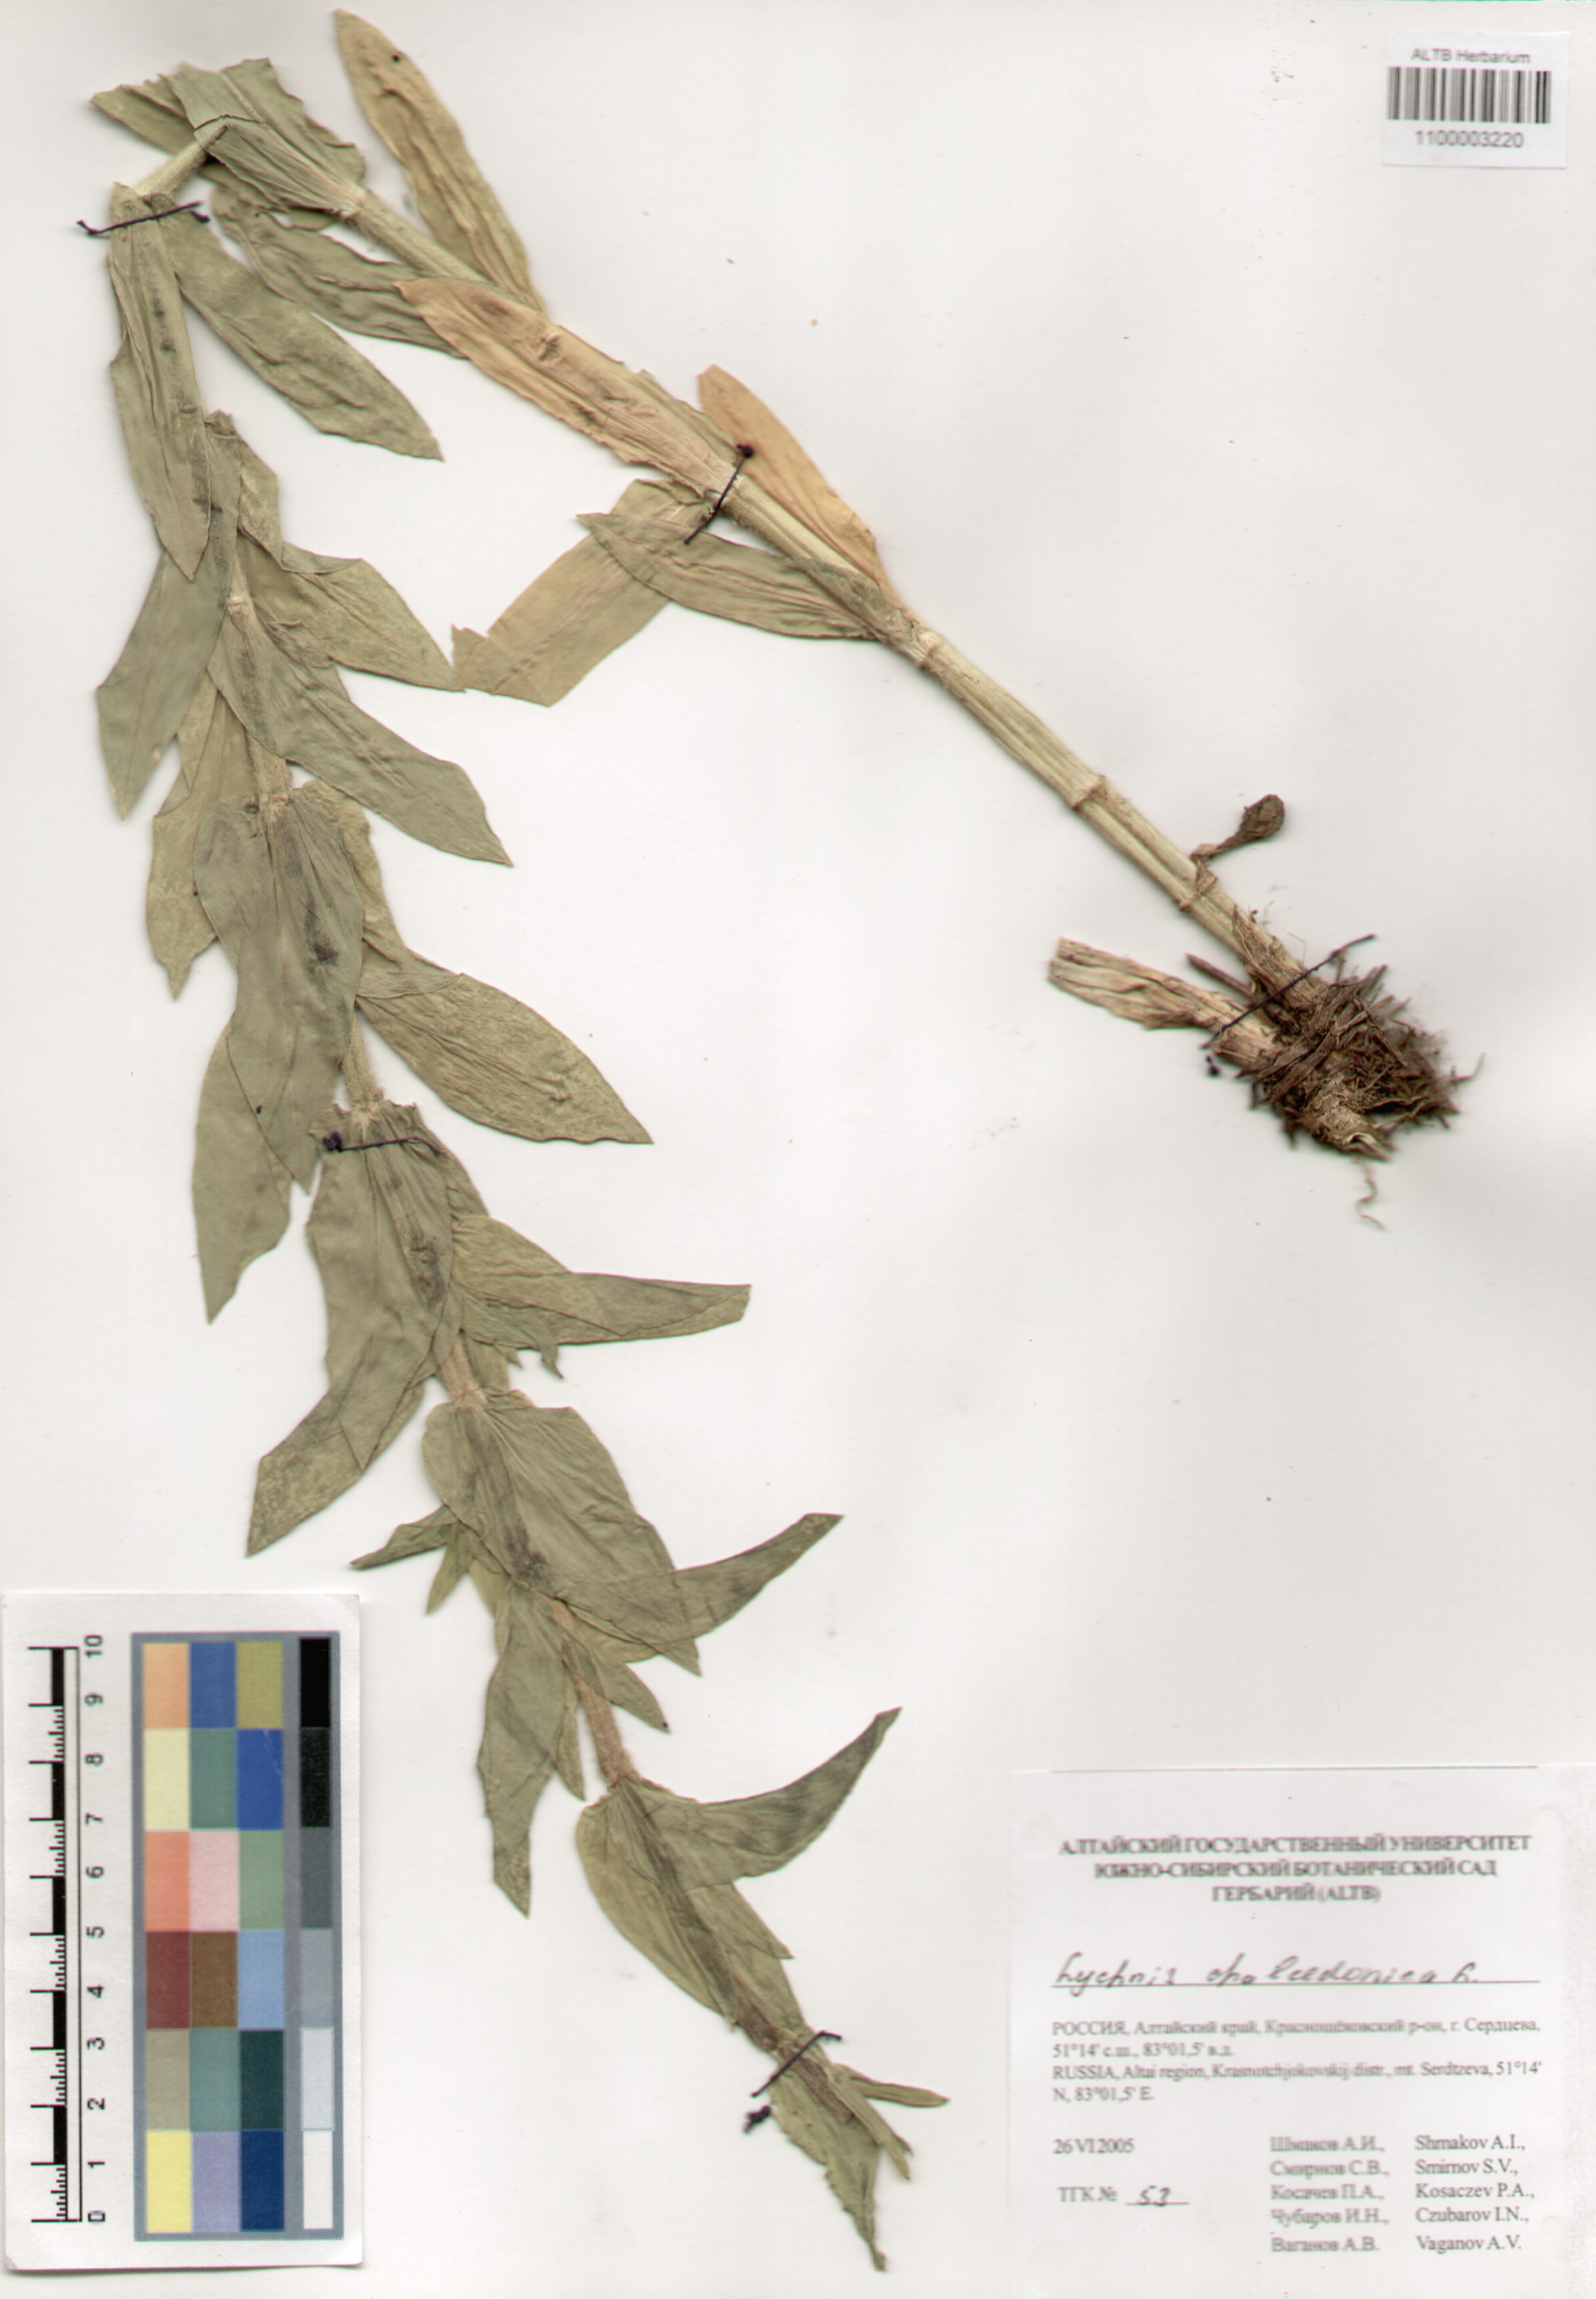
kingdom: Plantae
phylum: Tracheophyta
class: Magnoliopsida
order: Caryophyllales
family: Caryophyllaceae
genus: Silene
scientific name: Silene chalcedonica
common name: Maltese-cross
